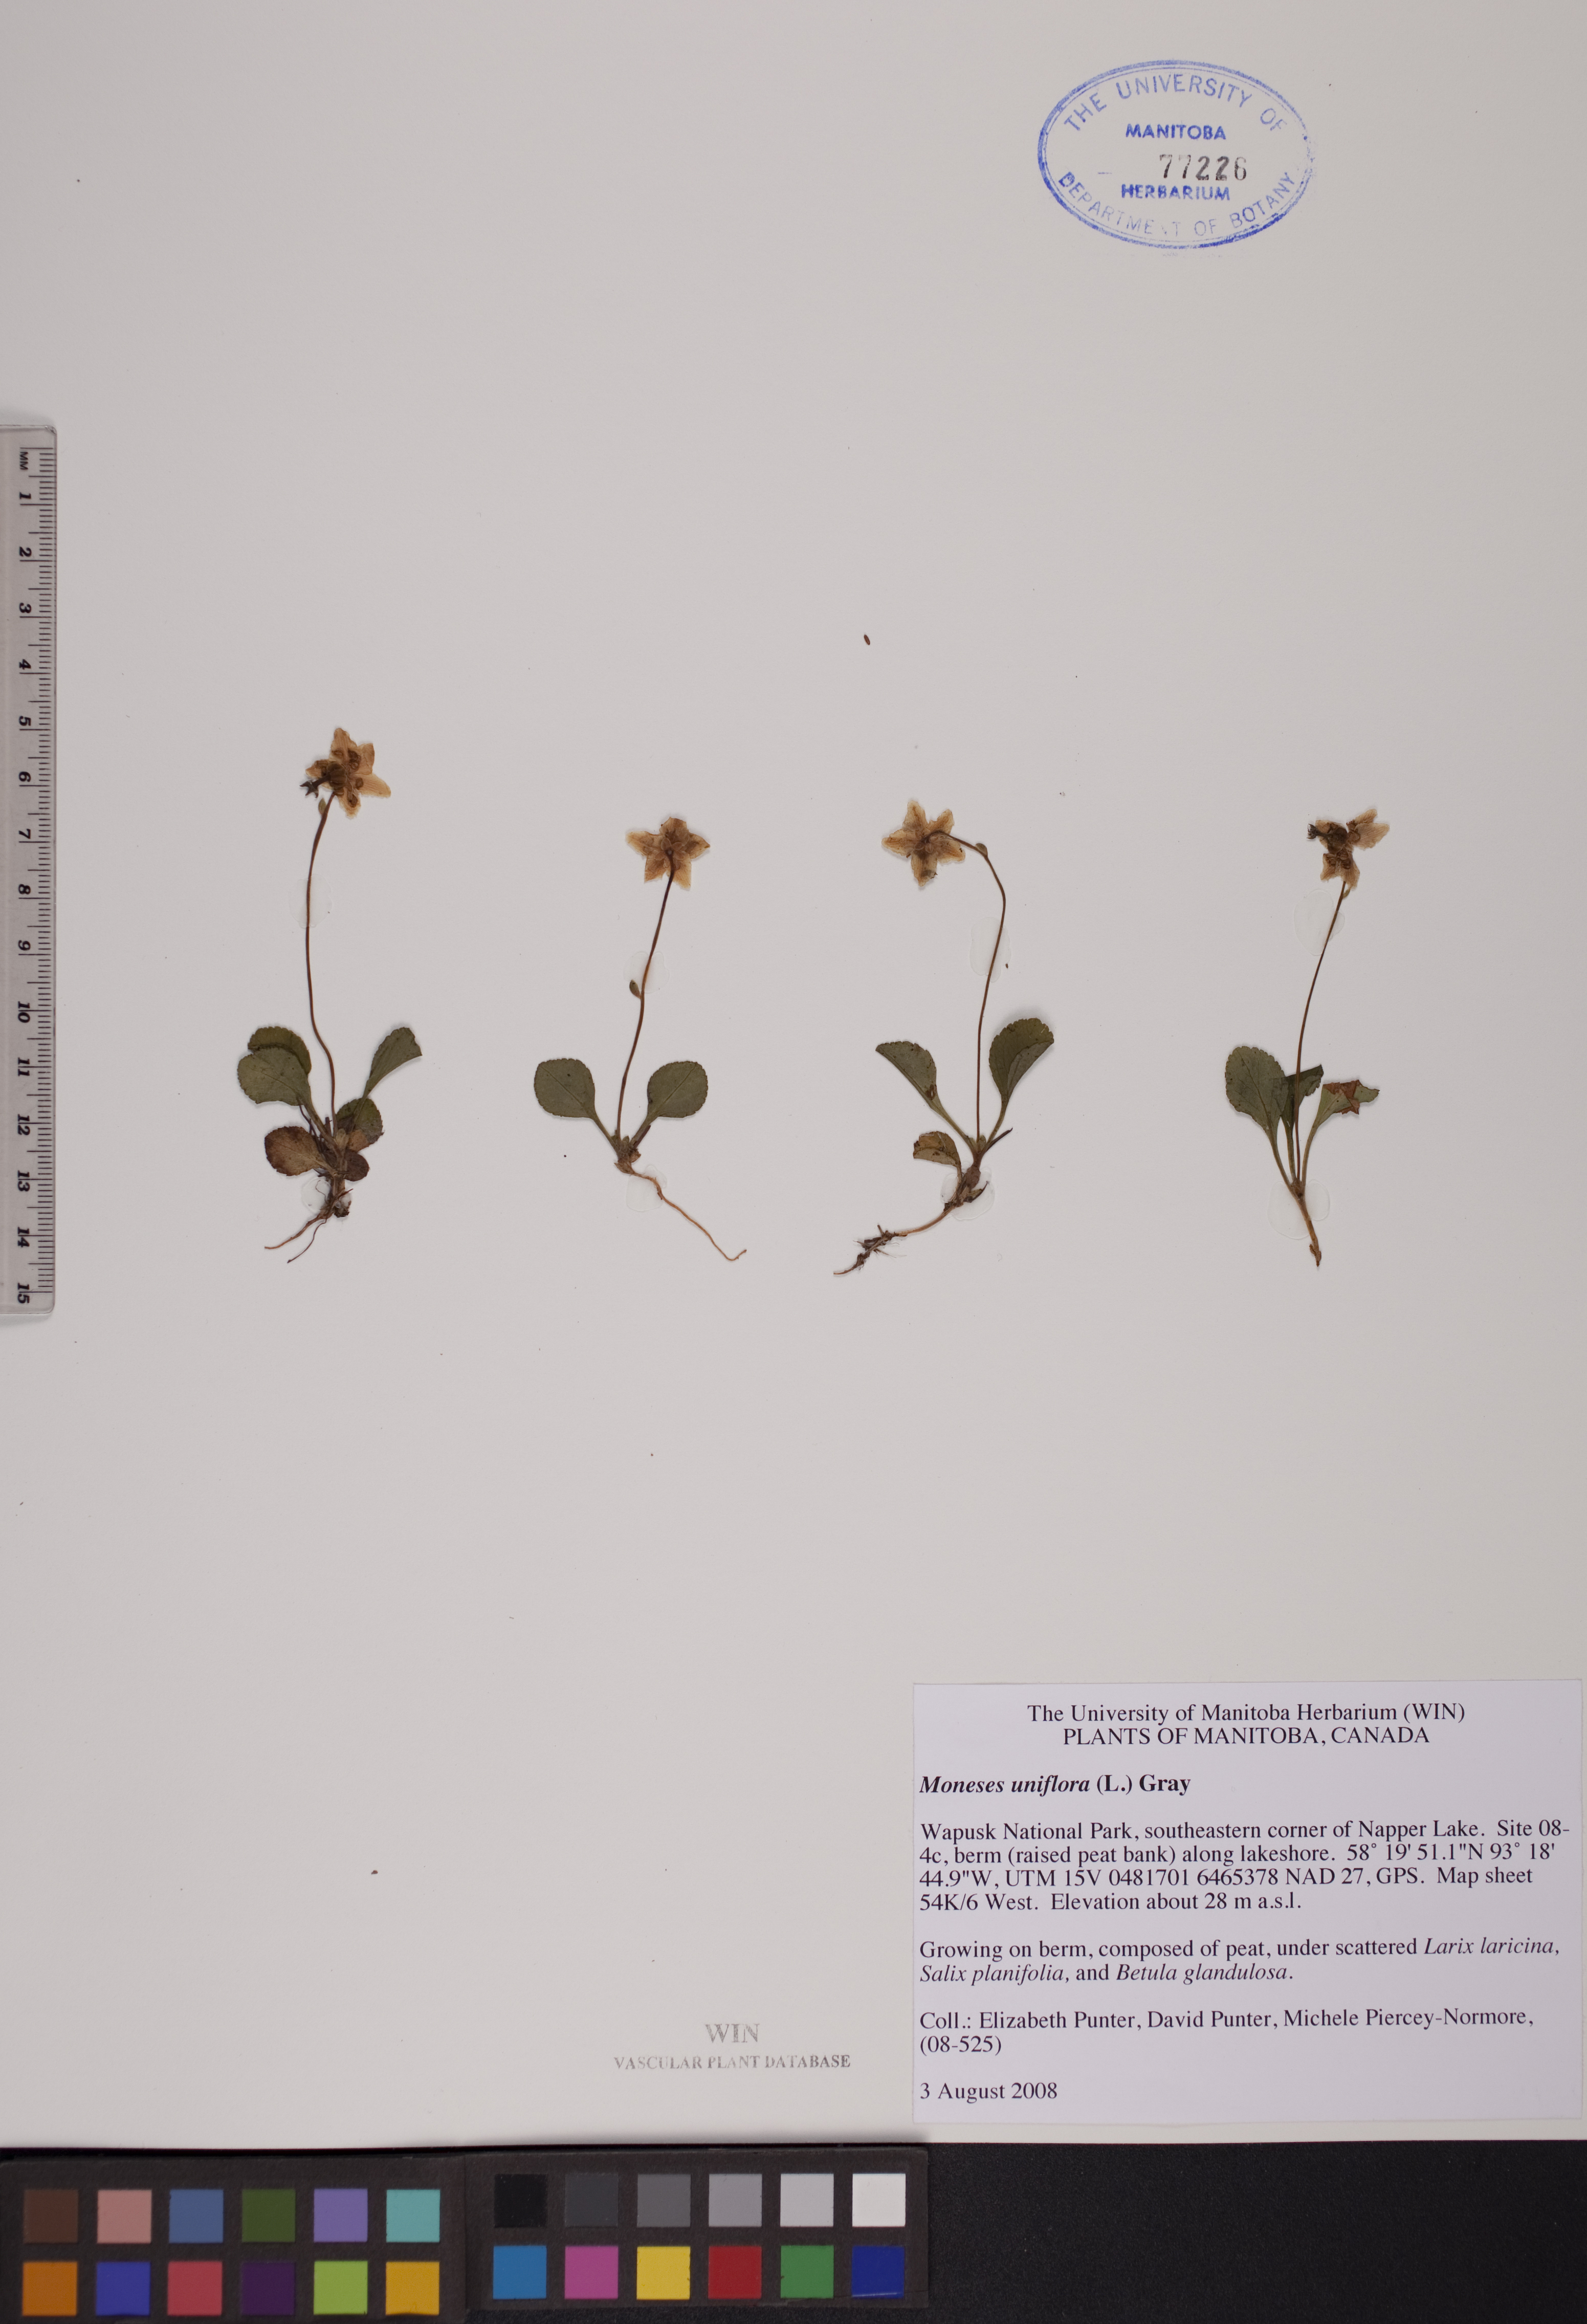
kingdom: Plantae
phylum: Tracheophyta
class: Magnoliopsida
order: Ericales
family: Ericaceae
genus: Moneses
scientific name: Moneses uniflora
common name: One-flowered wintergreen
